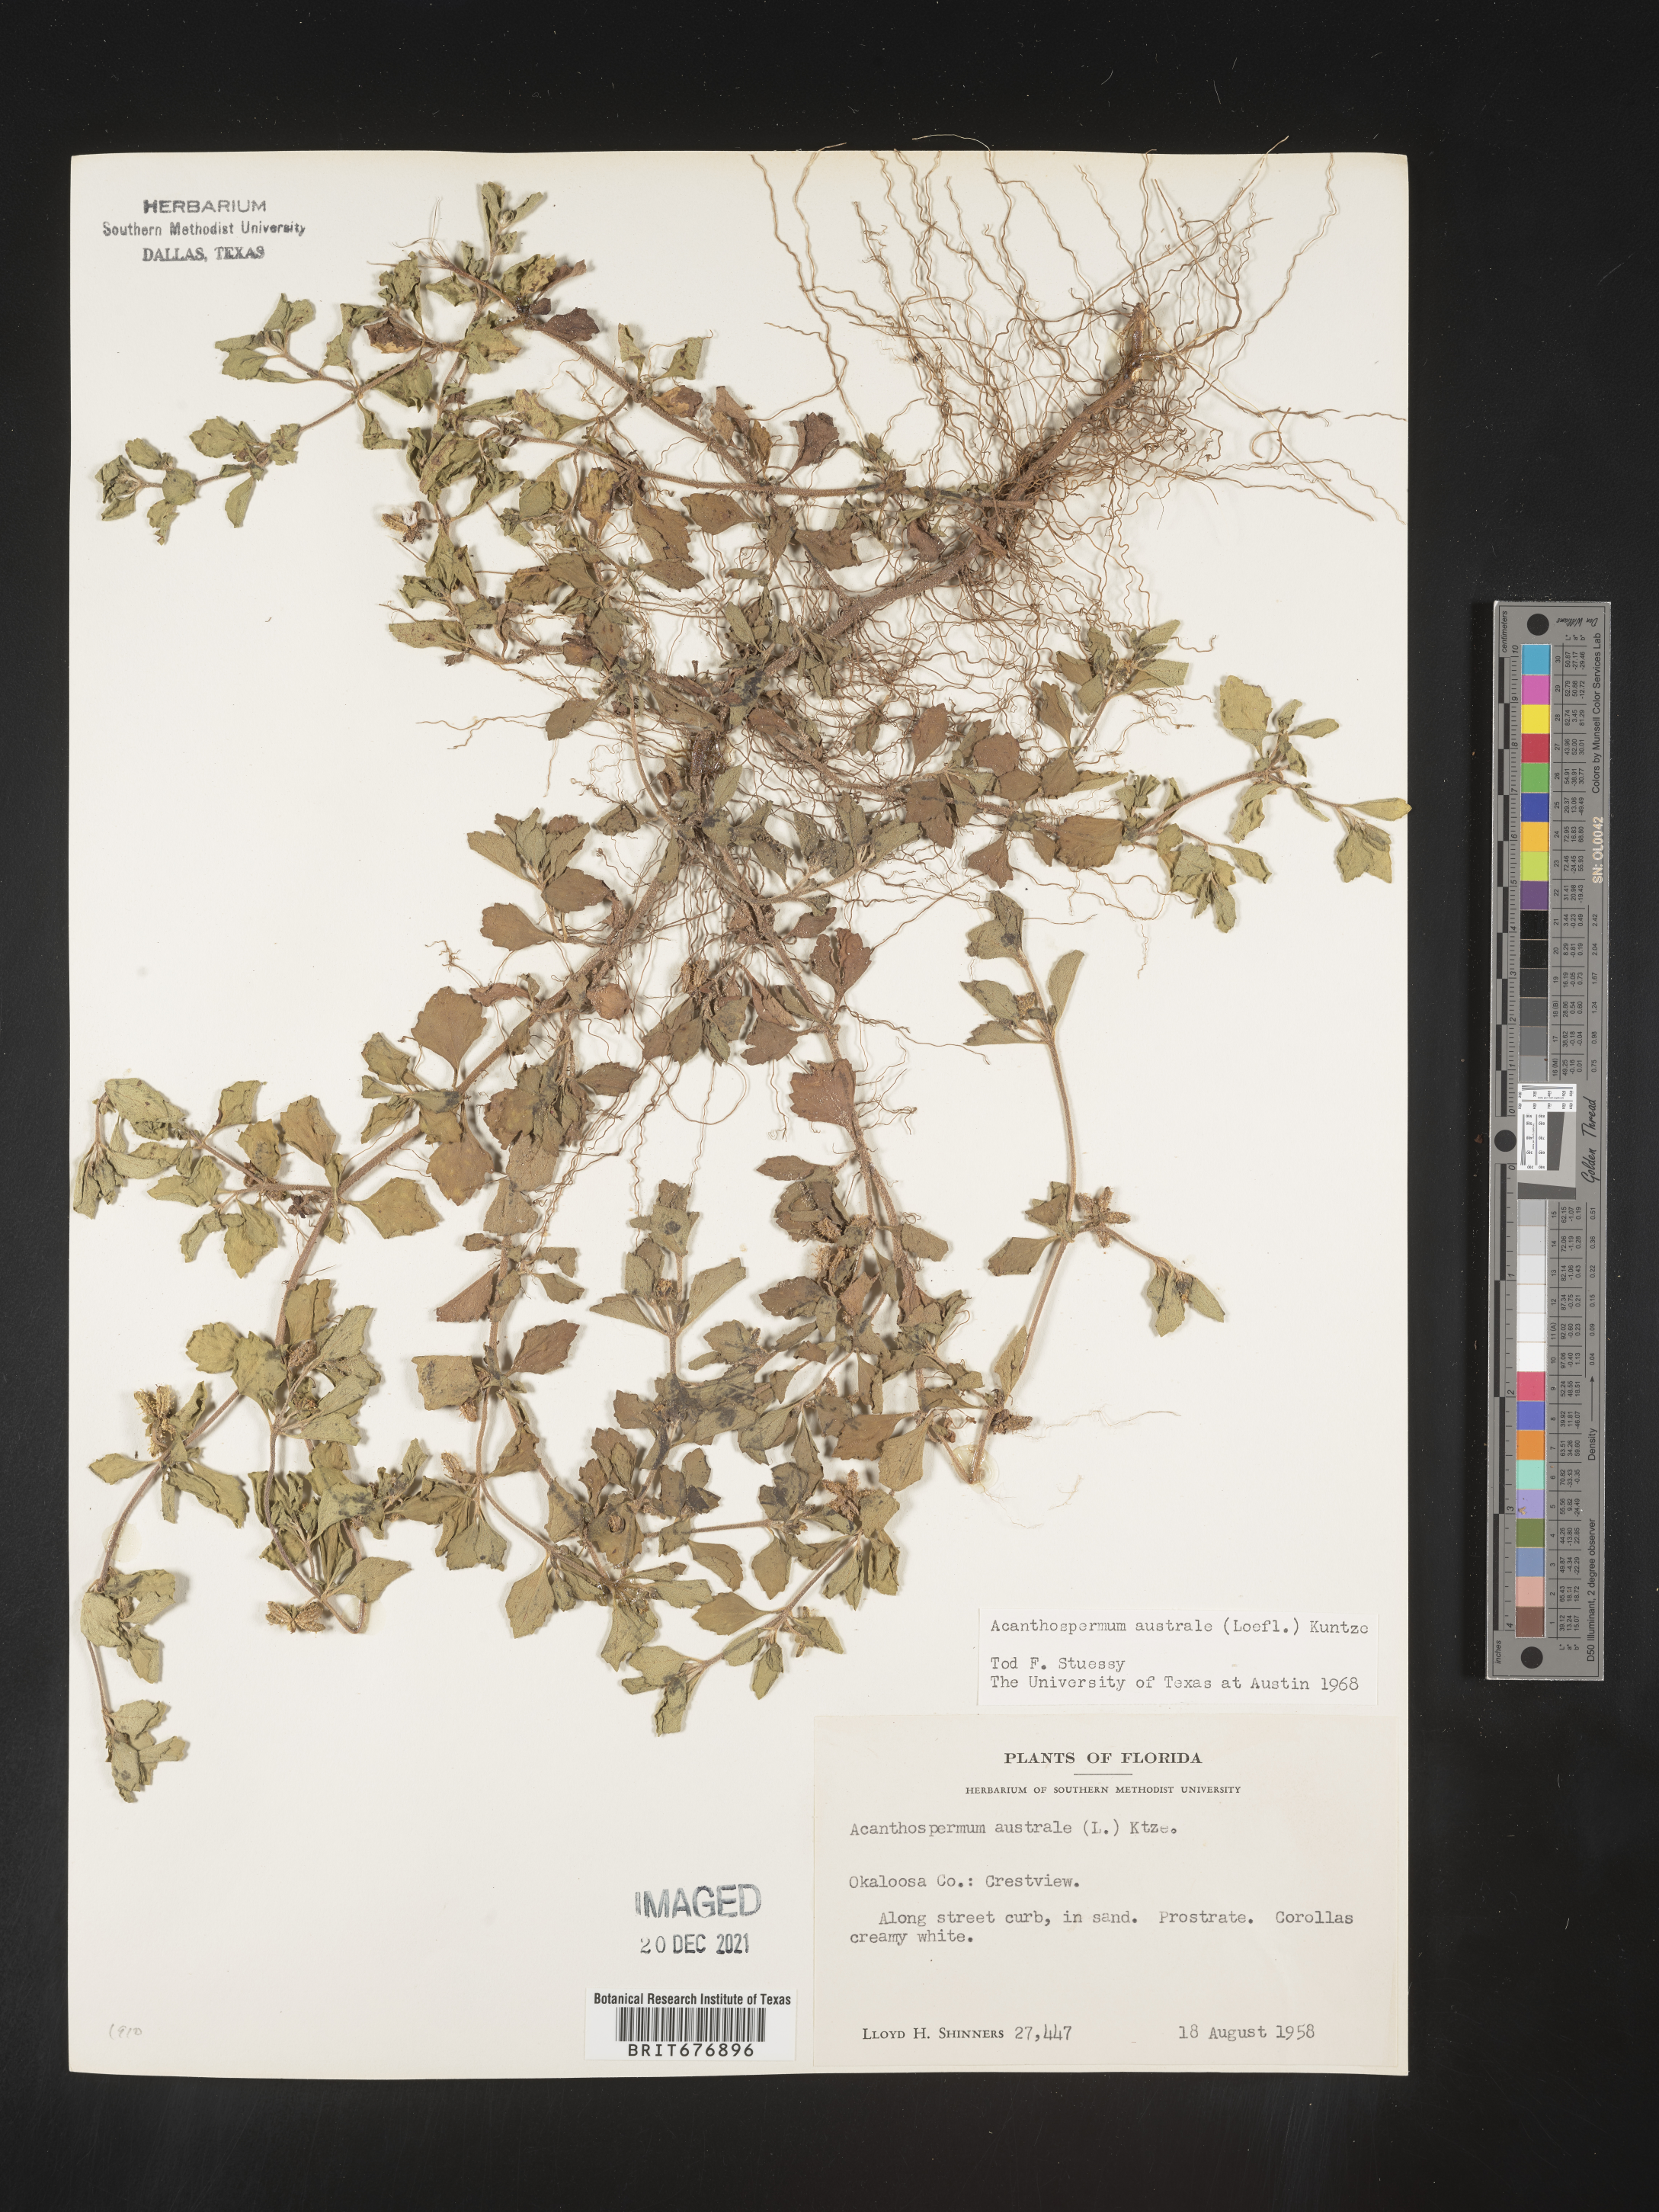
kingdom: Plantae
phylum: Tracheophyta
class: Magnoliopsida
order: Asterales
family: Asteraceae
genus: Acanthospermum
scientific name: Acanthospermum australe
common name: Paraguayan starbur
